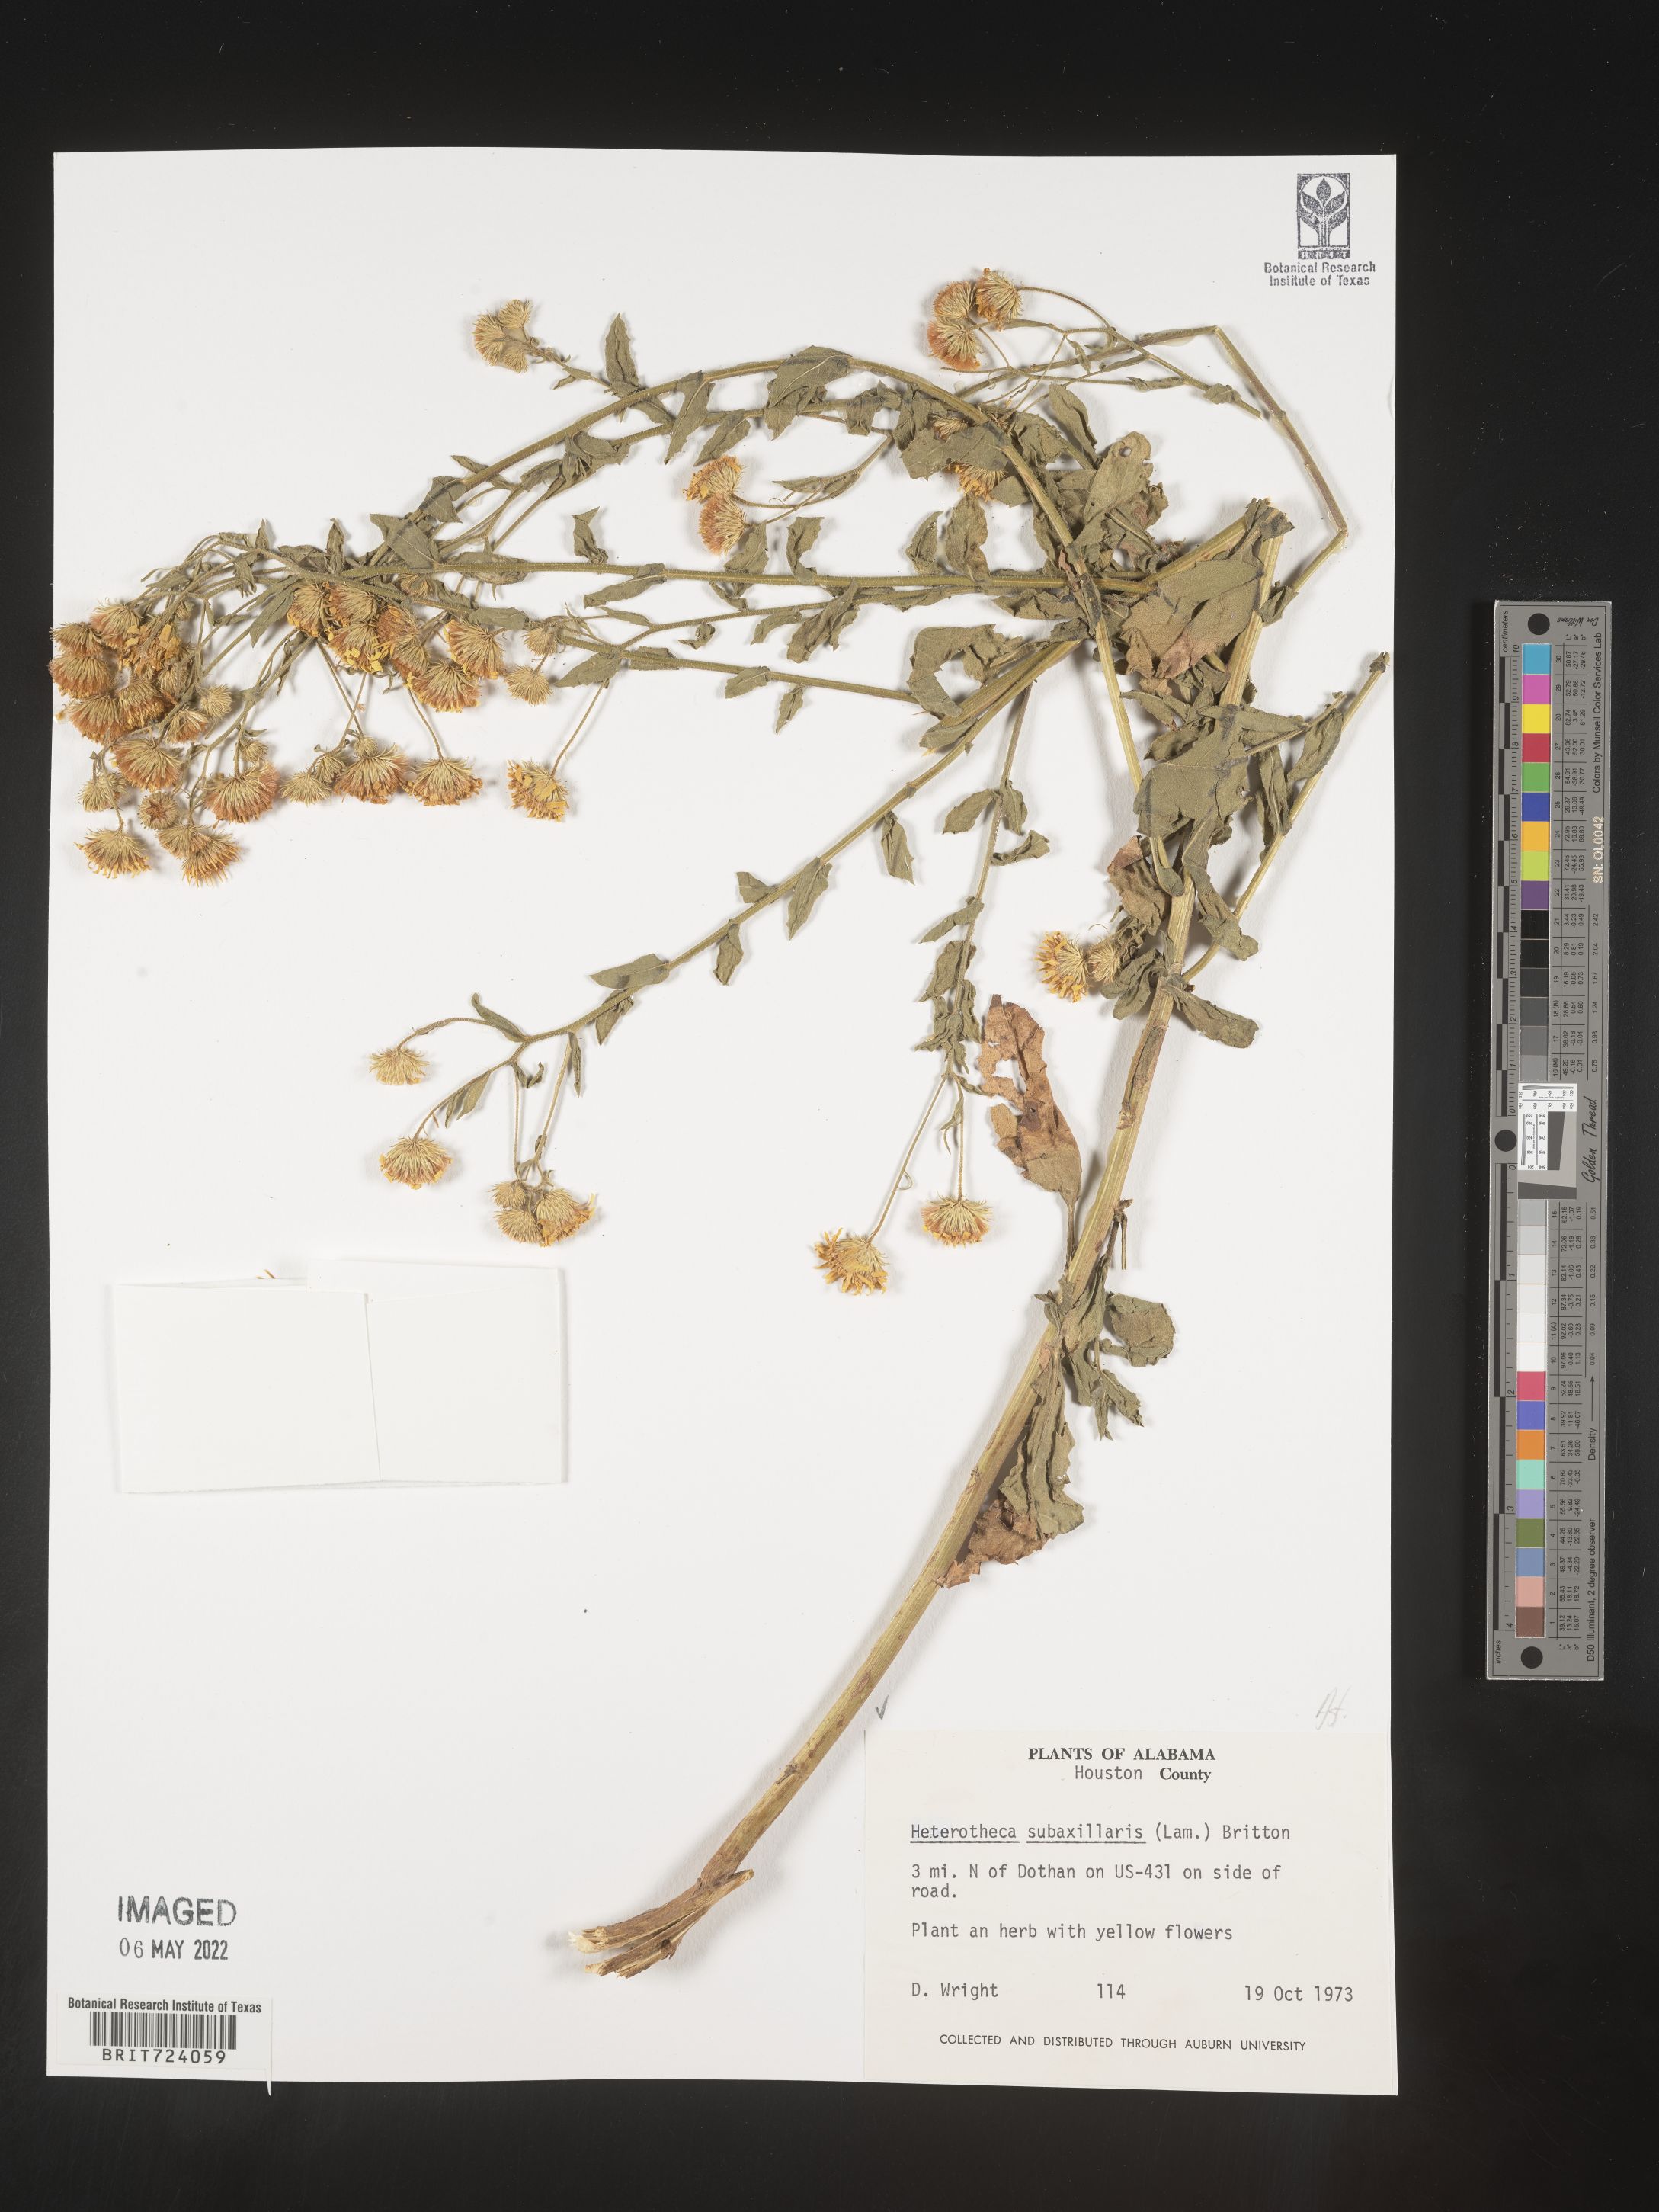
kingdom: Plantae
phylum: Tracheophyta
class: Magnoliopsida
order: Asterales
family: Asteraceae
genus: Heterotheca
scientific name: Heterotheca subaxillaris
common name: Camphorweed
